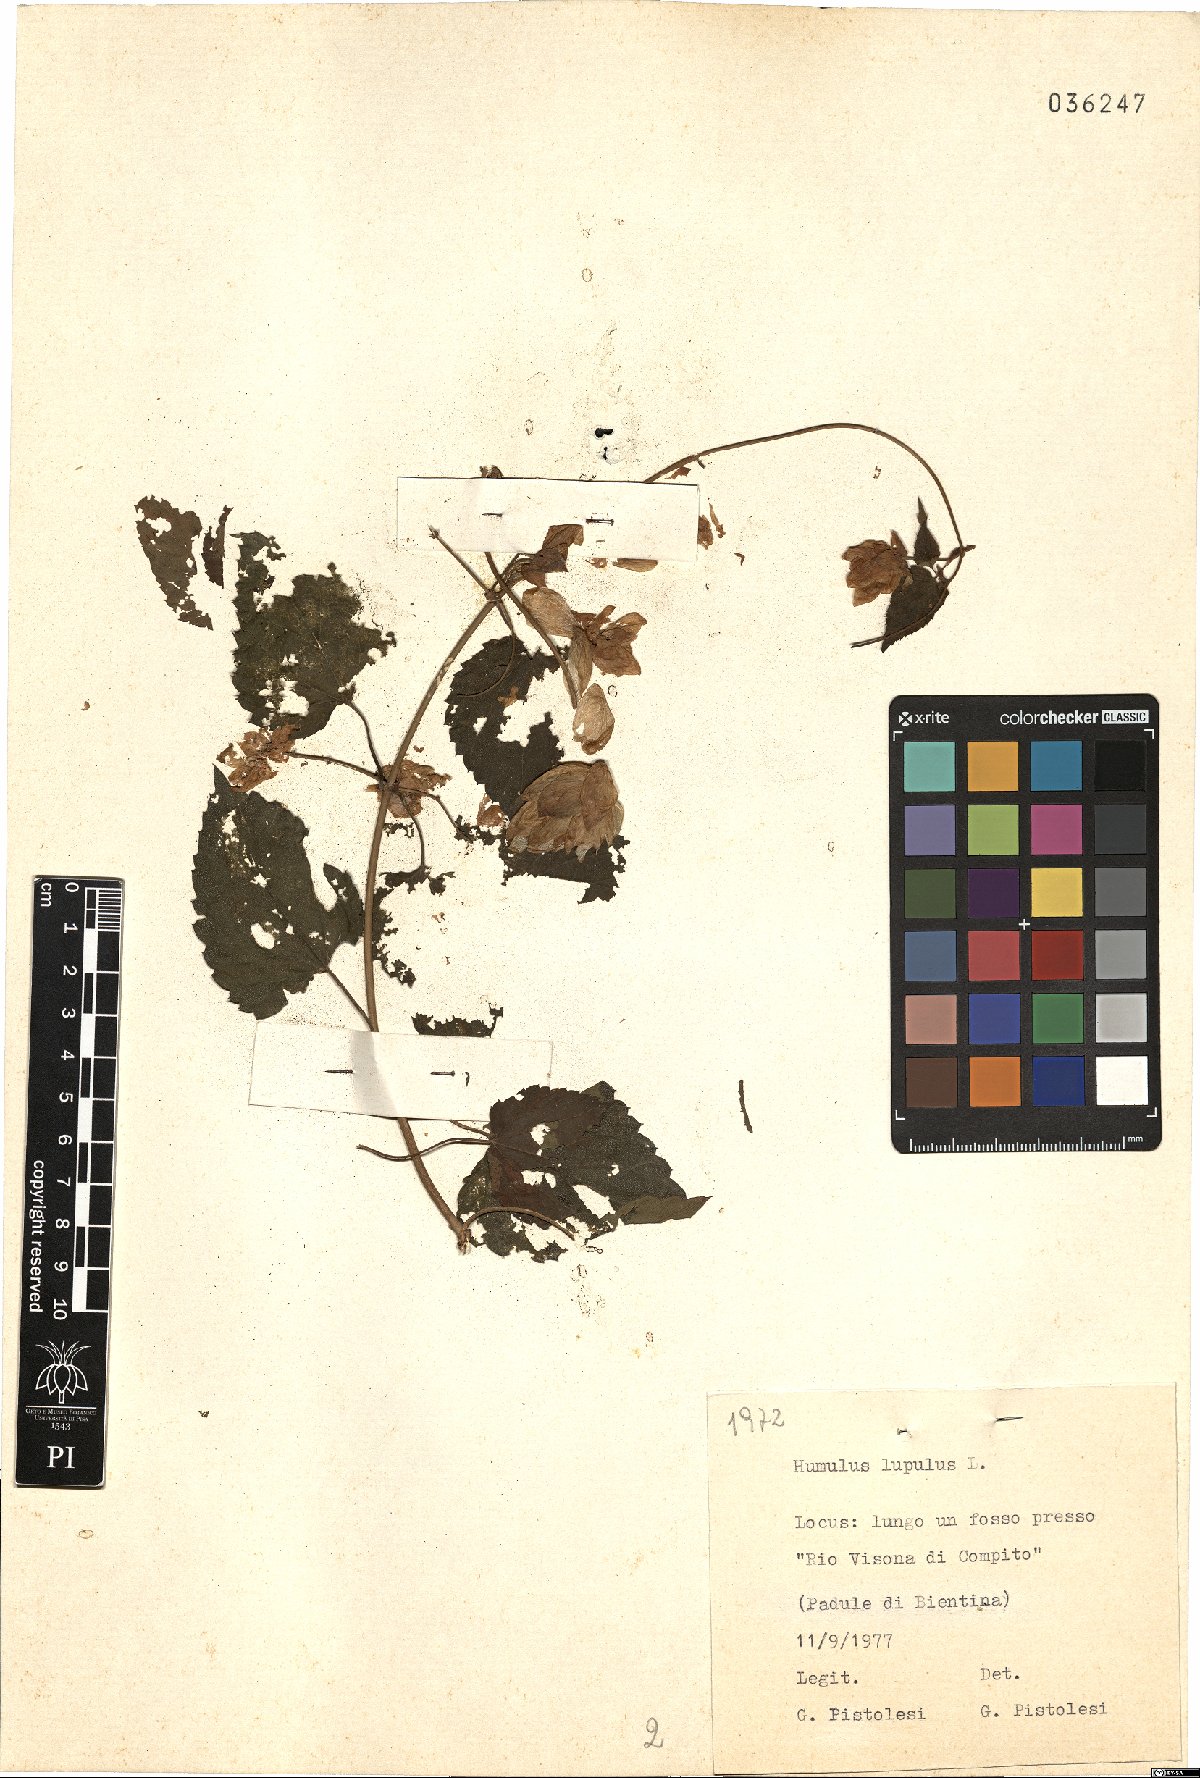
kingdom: Plantae
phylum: Tracheophyta
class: Magnoliopsida
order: Rosales
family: Cannabaceae
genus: Humulus
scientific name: Humulus lupulus
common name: Hop
